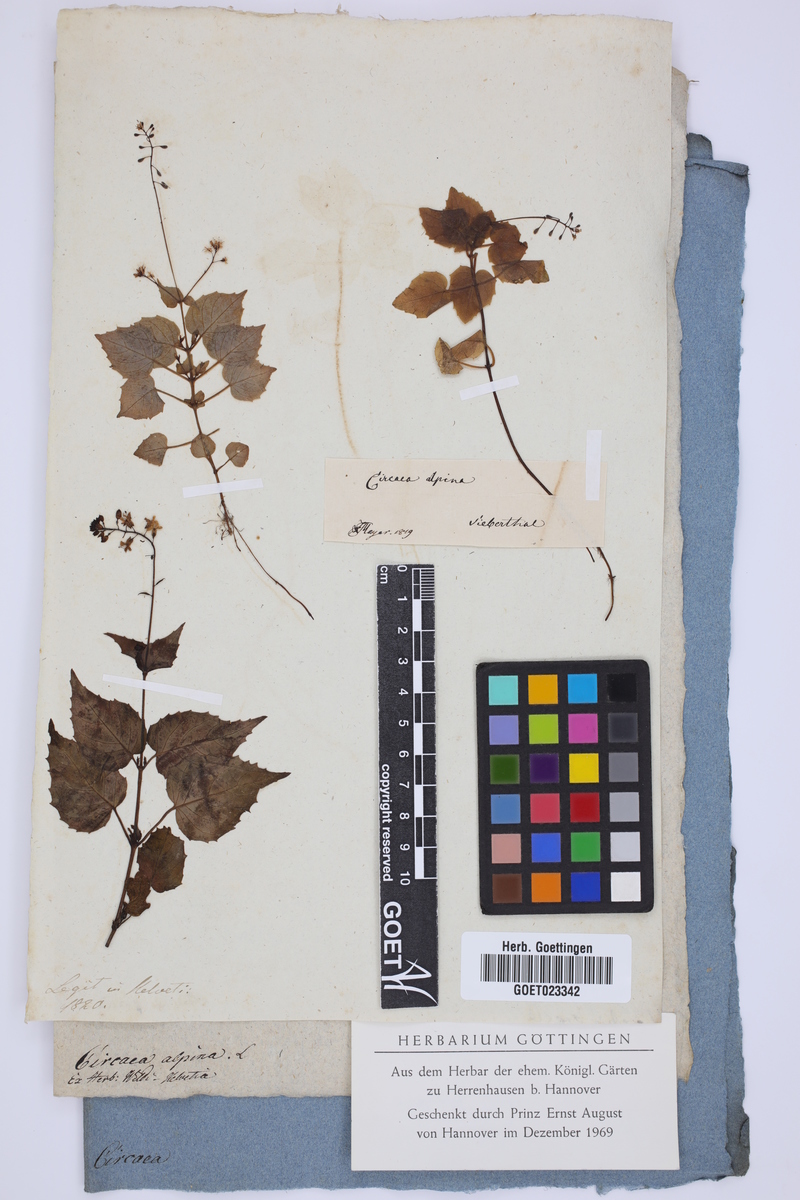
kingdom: Plantae
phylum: Tracheophyta
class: Magnoliopsida
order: Myrtales
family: Onagraceae
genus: Circaea
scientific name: Circaea alpina
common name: Alpine enchanter's-nightshade
